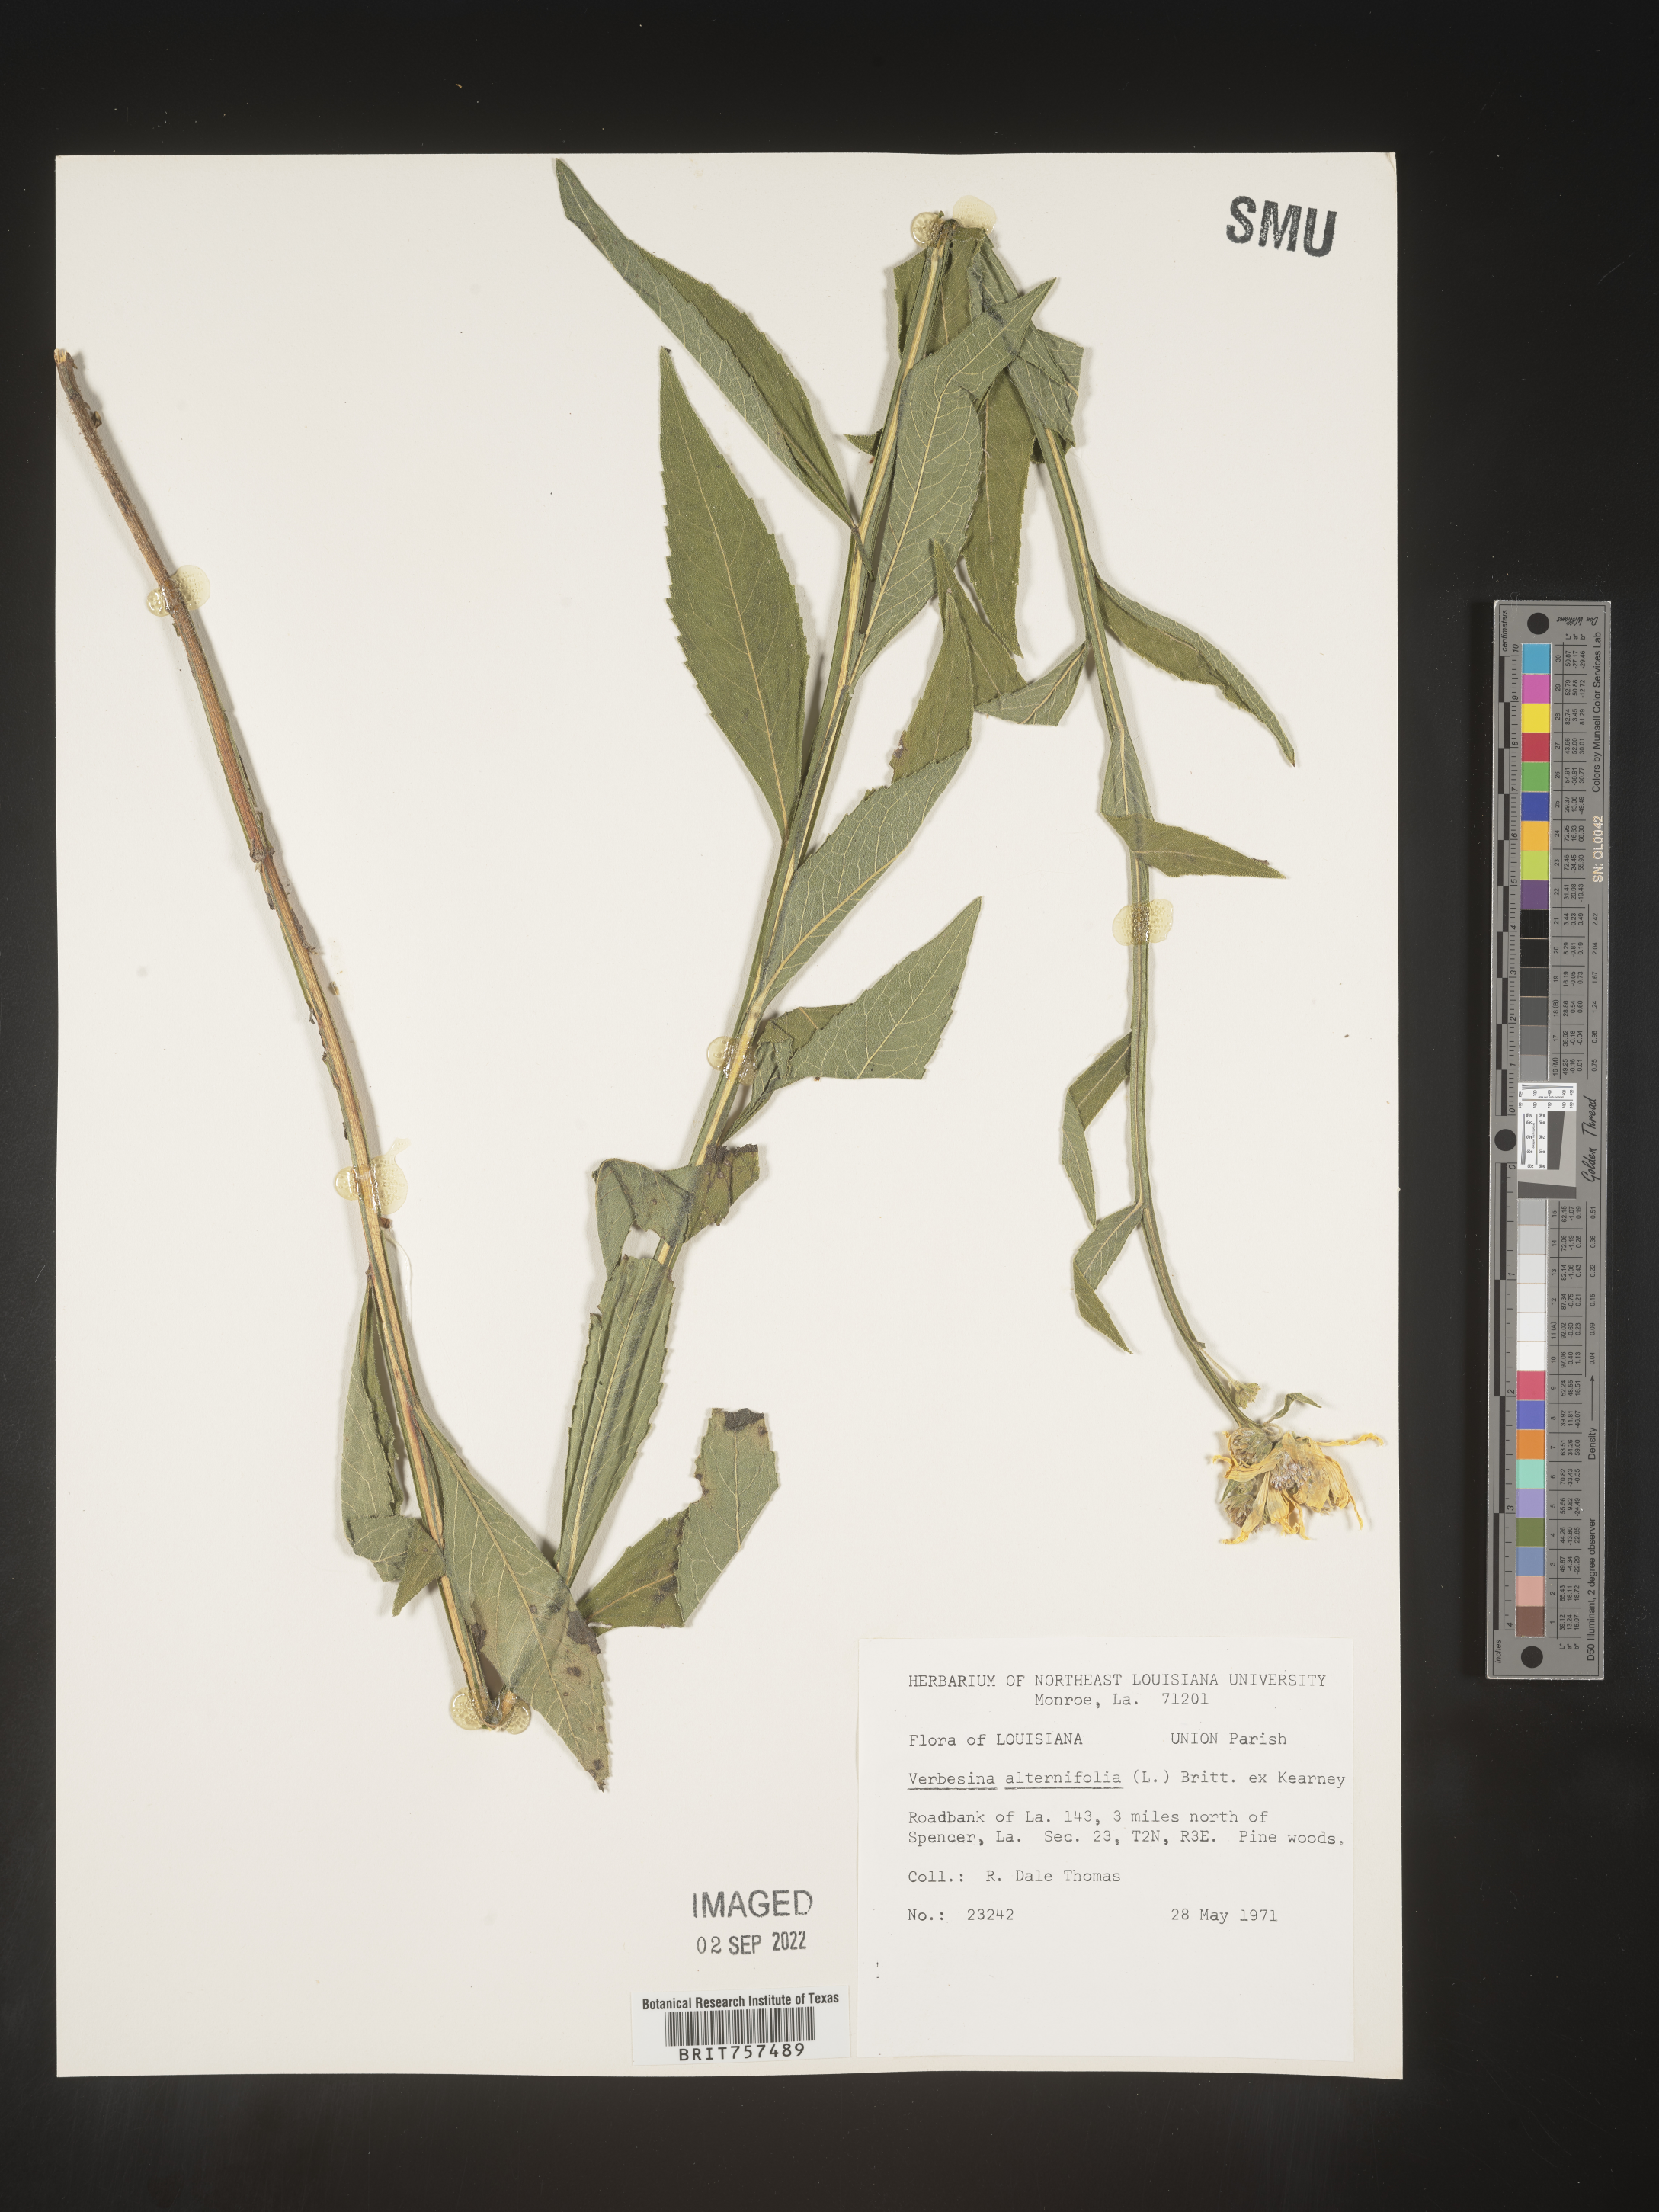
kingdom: Plantae
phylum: Tracheophyta
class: Magnoliopsida
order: Asterales
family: Asteraceae
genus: Verbesina
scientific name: Verbesina alternifolia
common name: Wingstem
